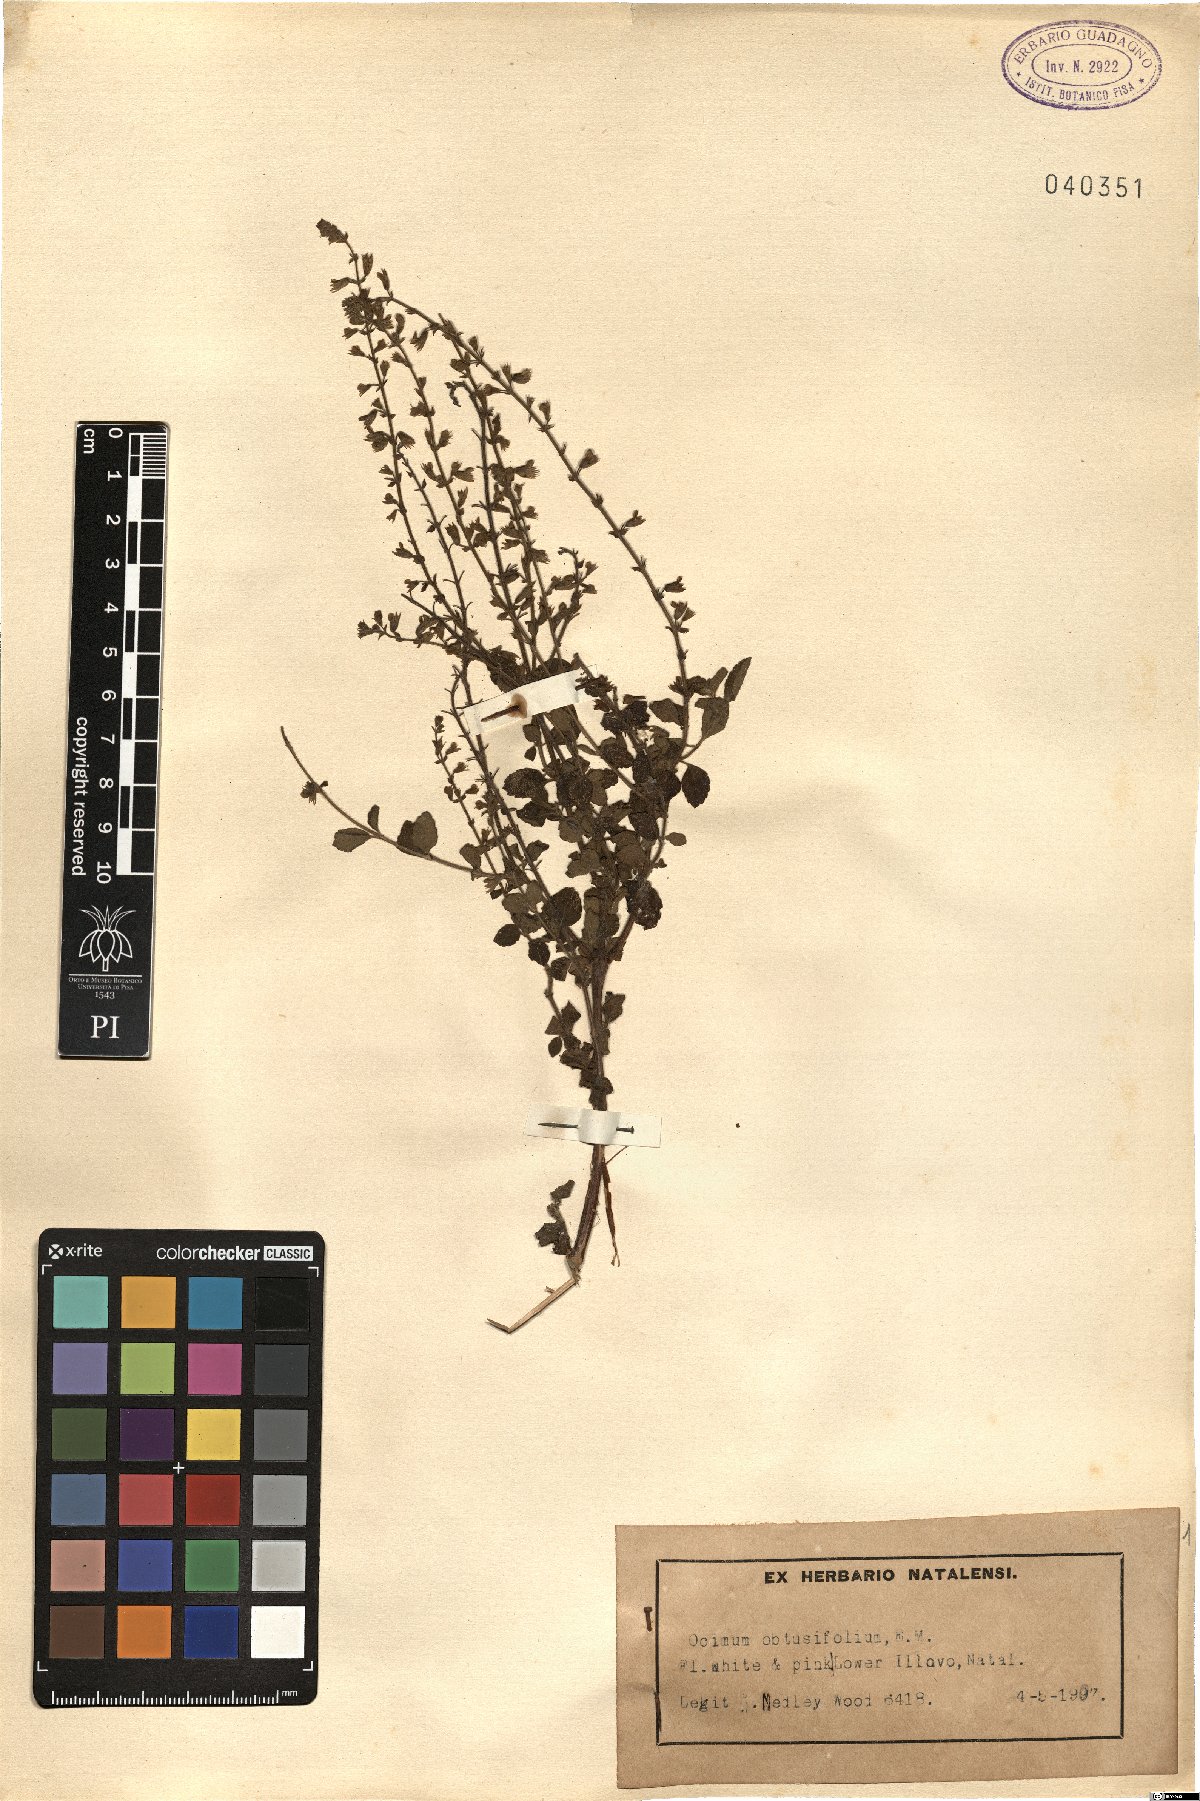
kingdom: Plantae
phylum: Tracheophyta
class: Magnoliopsida
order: Lamiales
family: Lamiaceae
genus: Endostemon
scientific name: Endostemon obtusifolius
